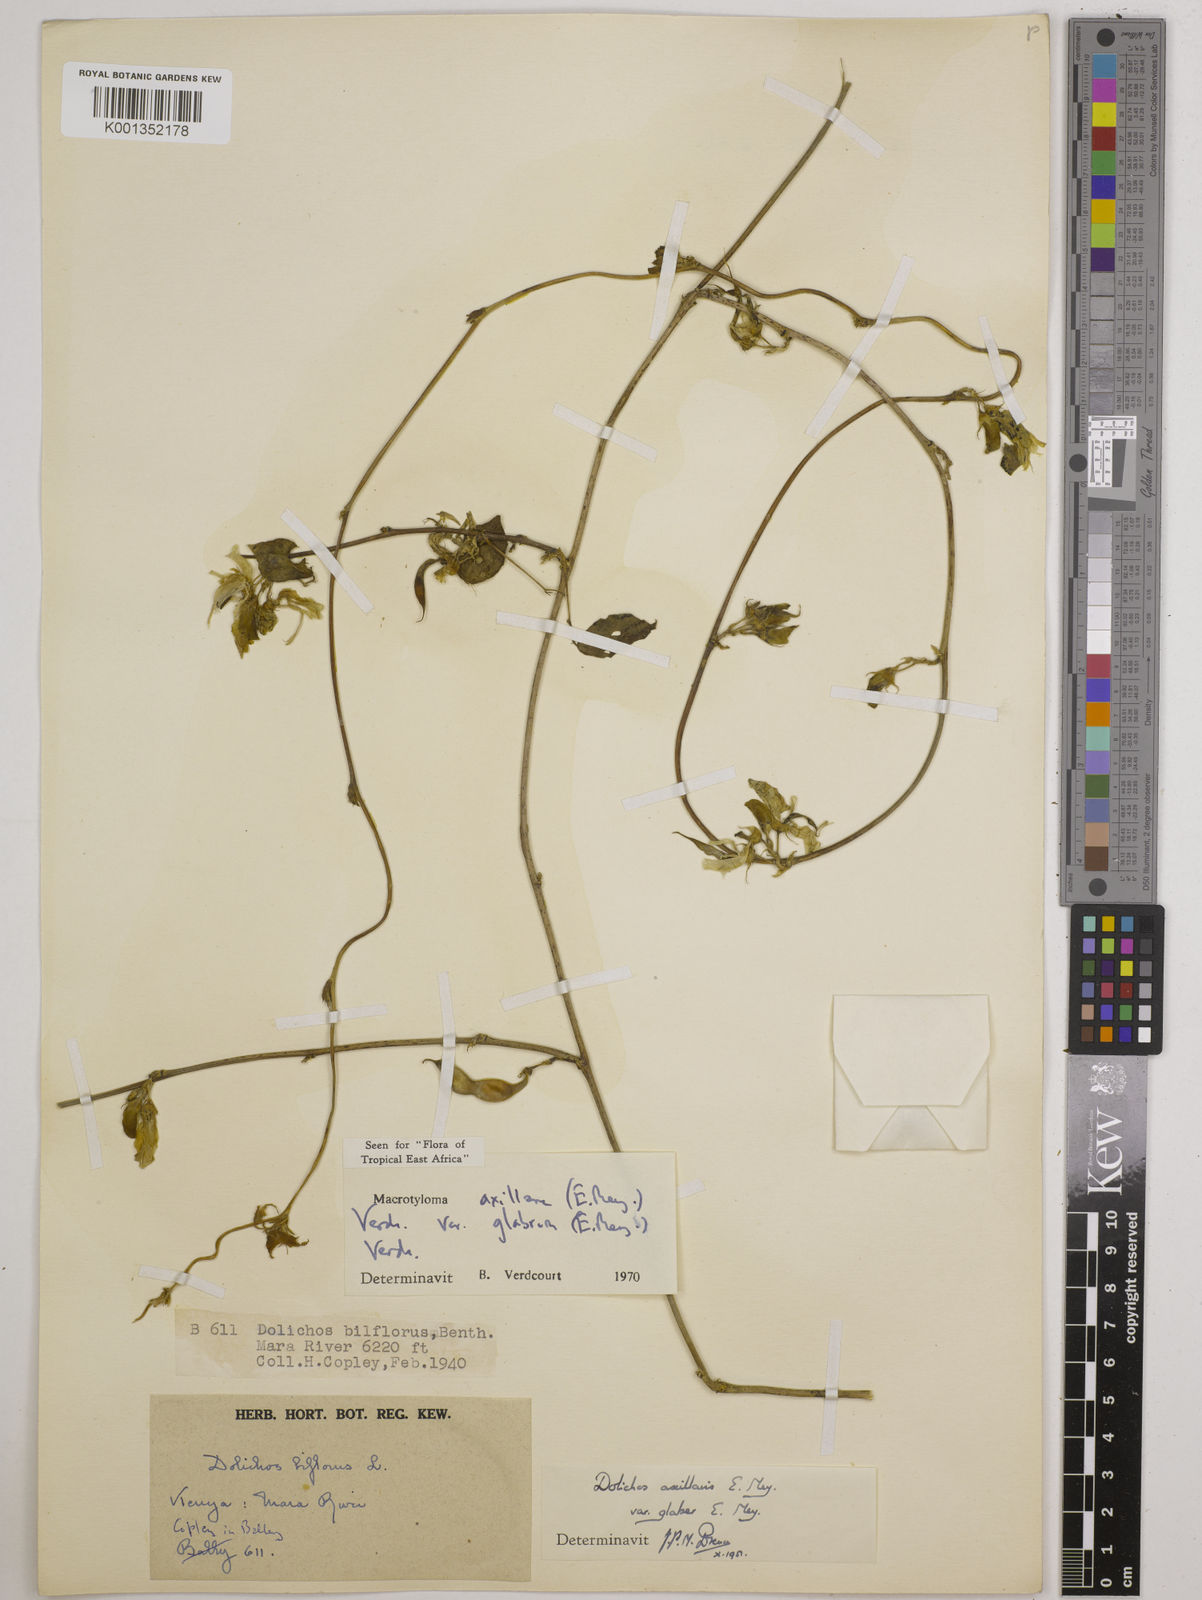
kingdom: Plantae
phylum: Tracheophyta
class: Magnoliopsida
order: Fabales
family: Fabaceae
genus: Macrotyloma
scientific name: Macrotyloma
